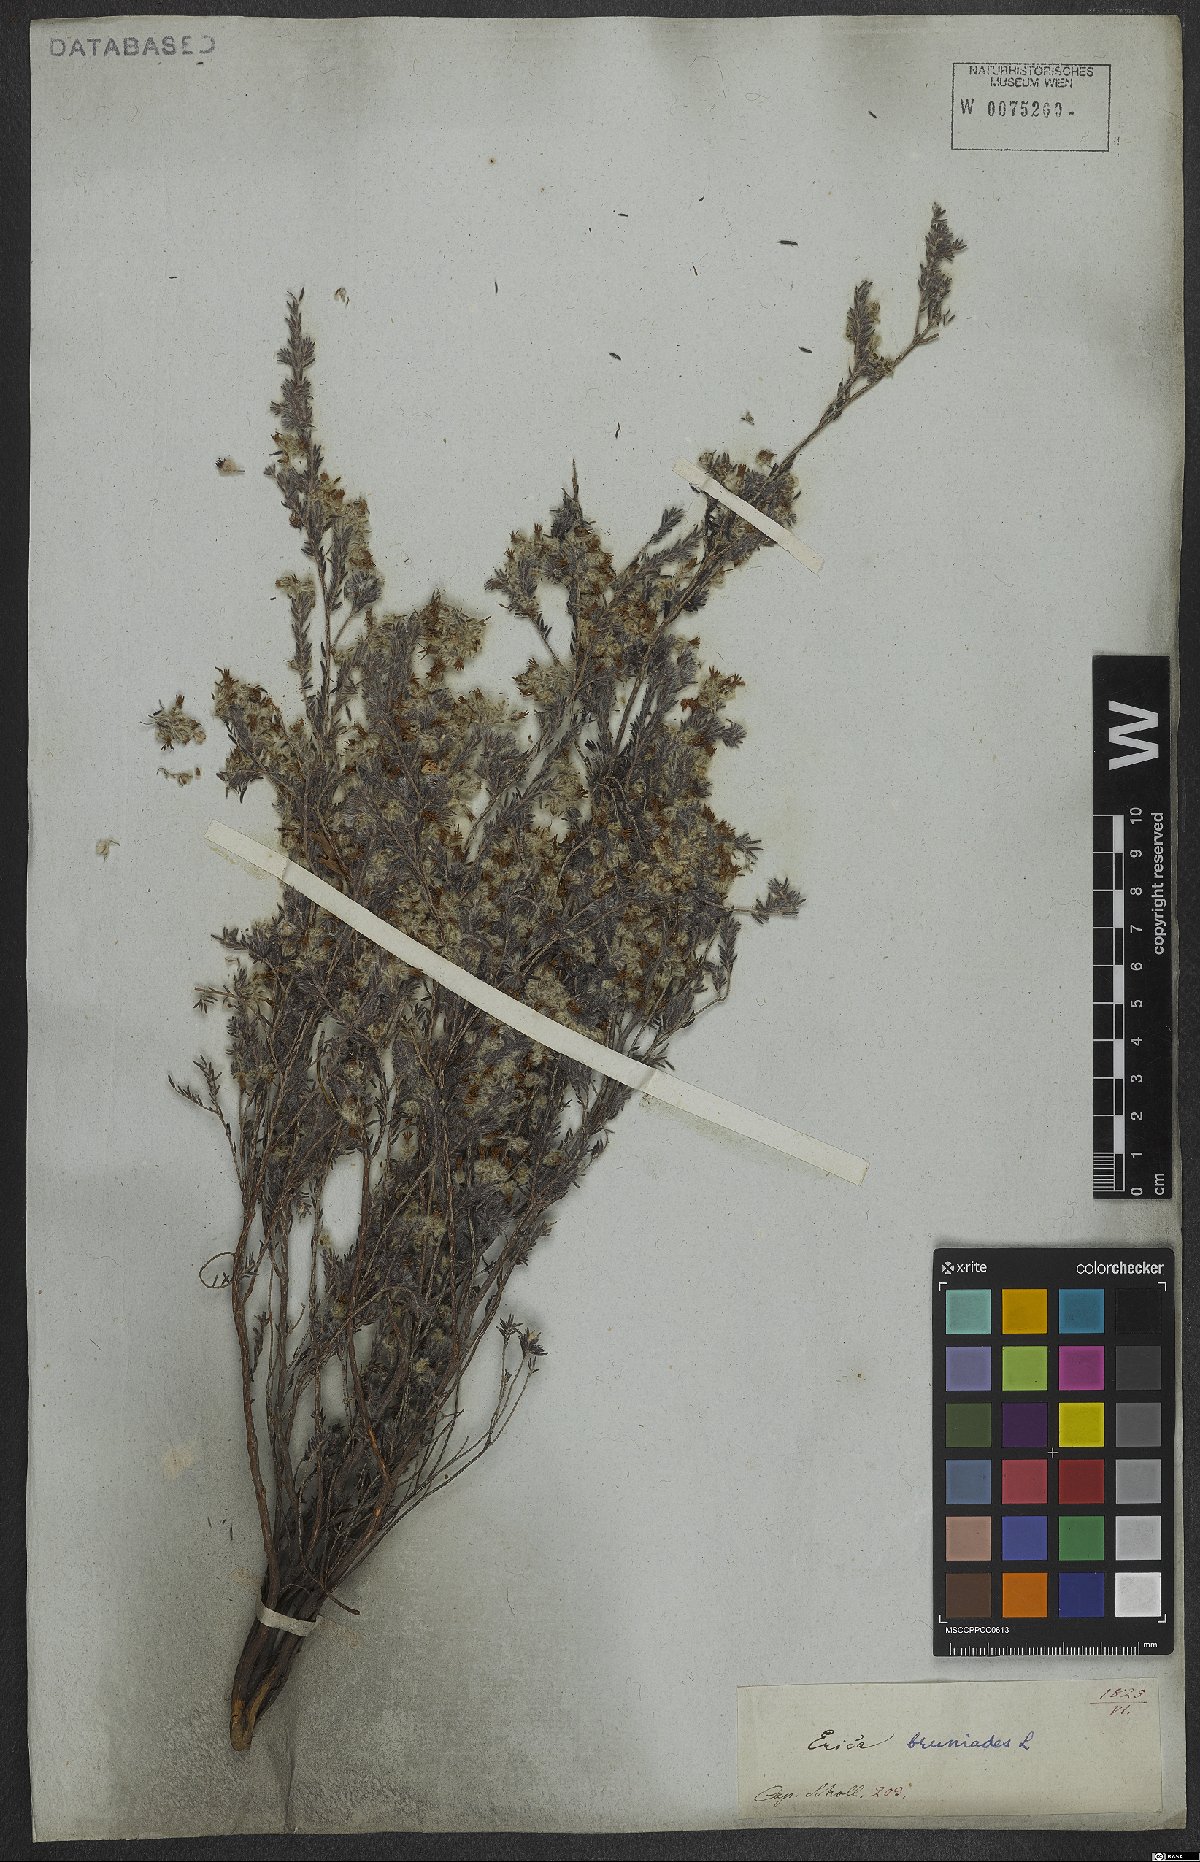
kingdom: Plantae
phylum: Tracheophyta
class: Magnoliopsida
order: Ericales
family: Ericaceae
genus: Erica
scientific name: Erica bruniades
